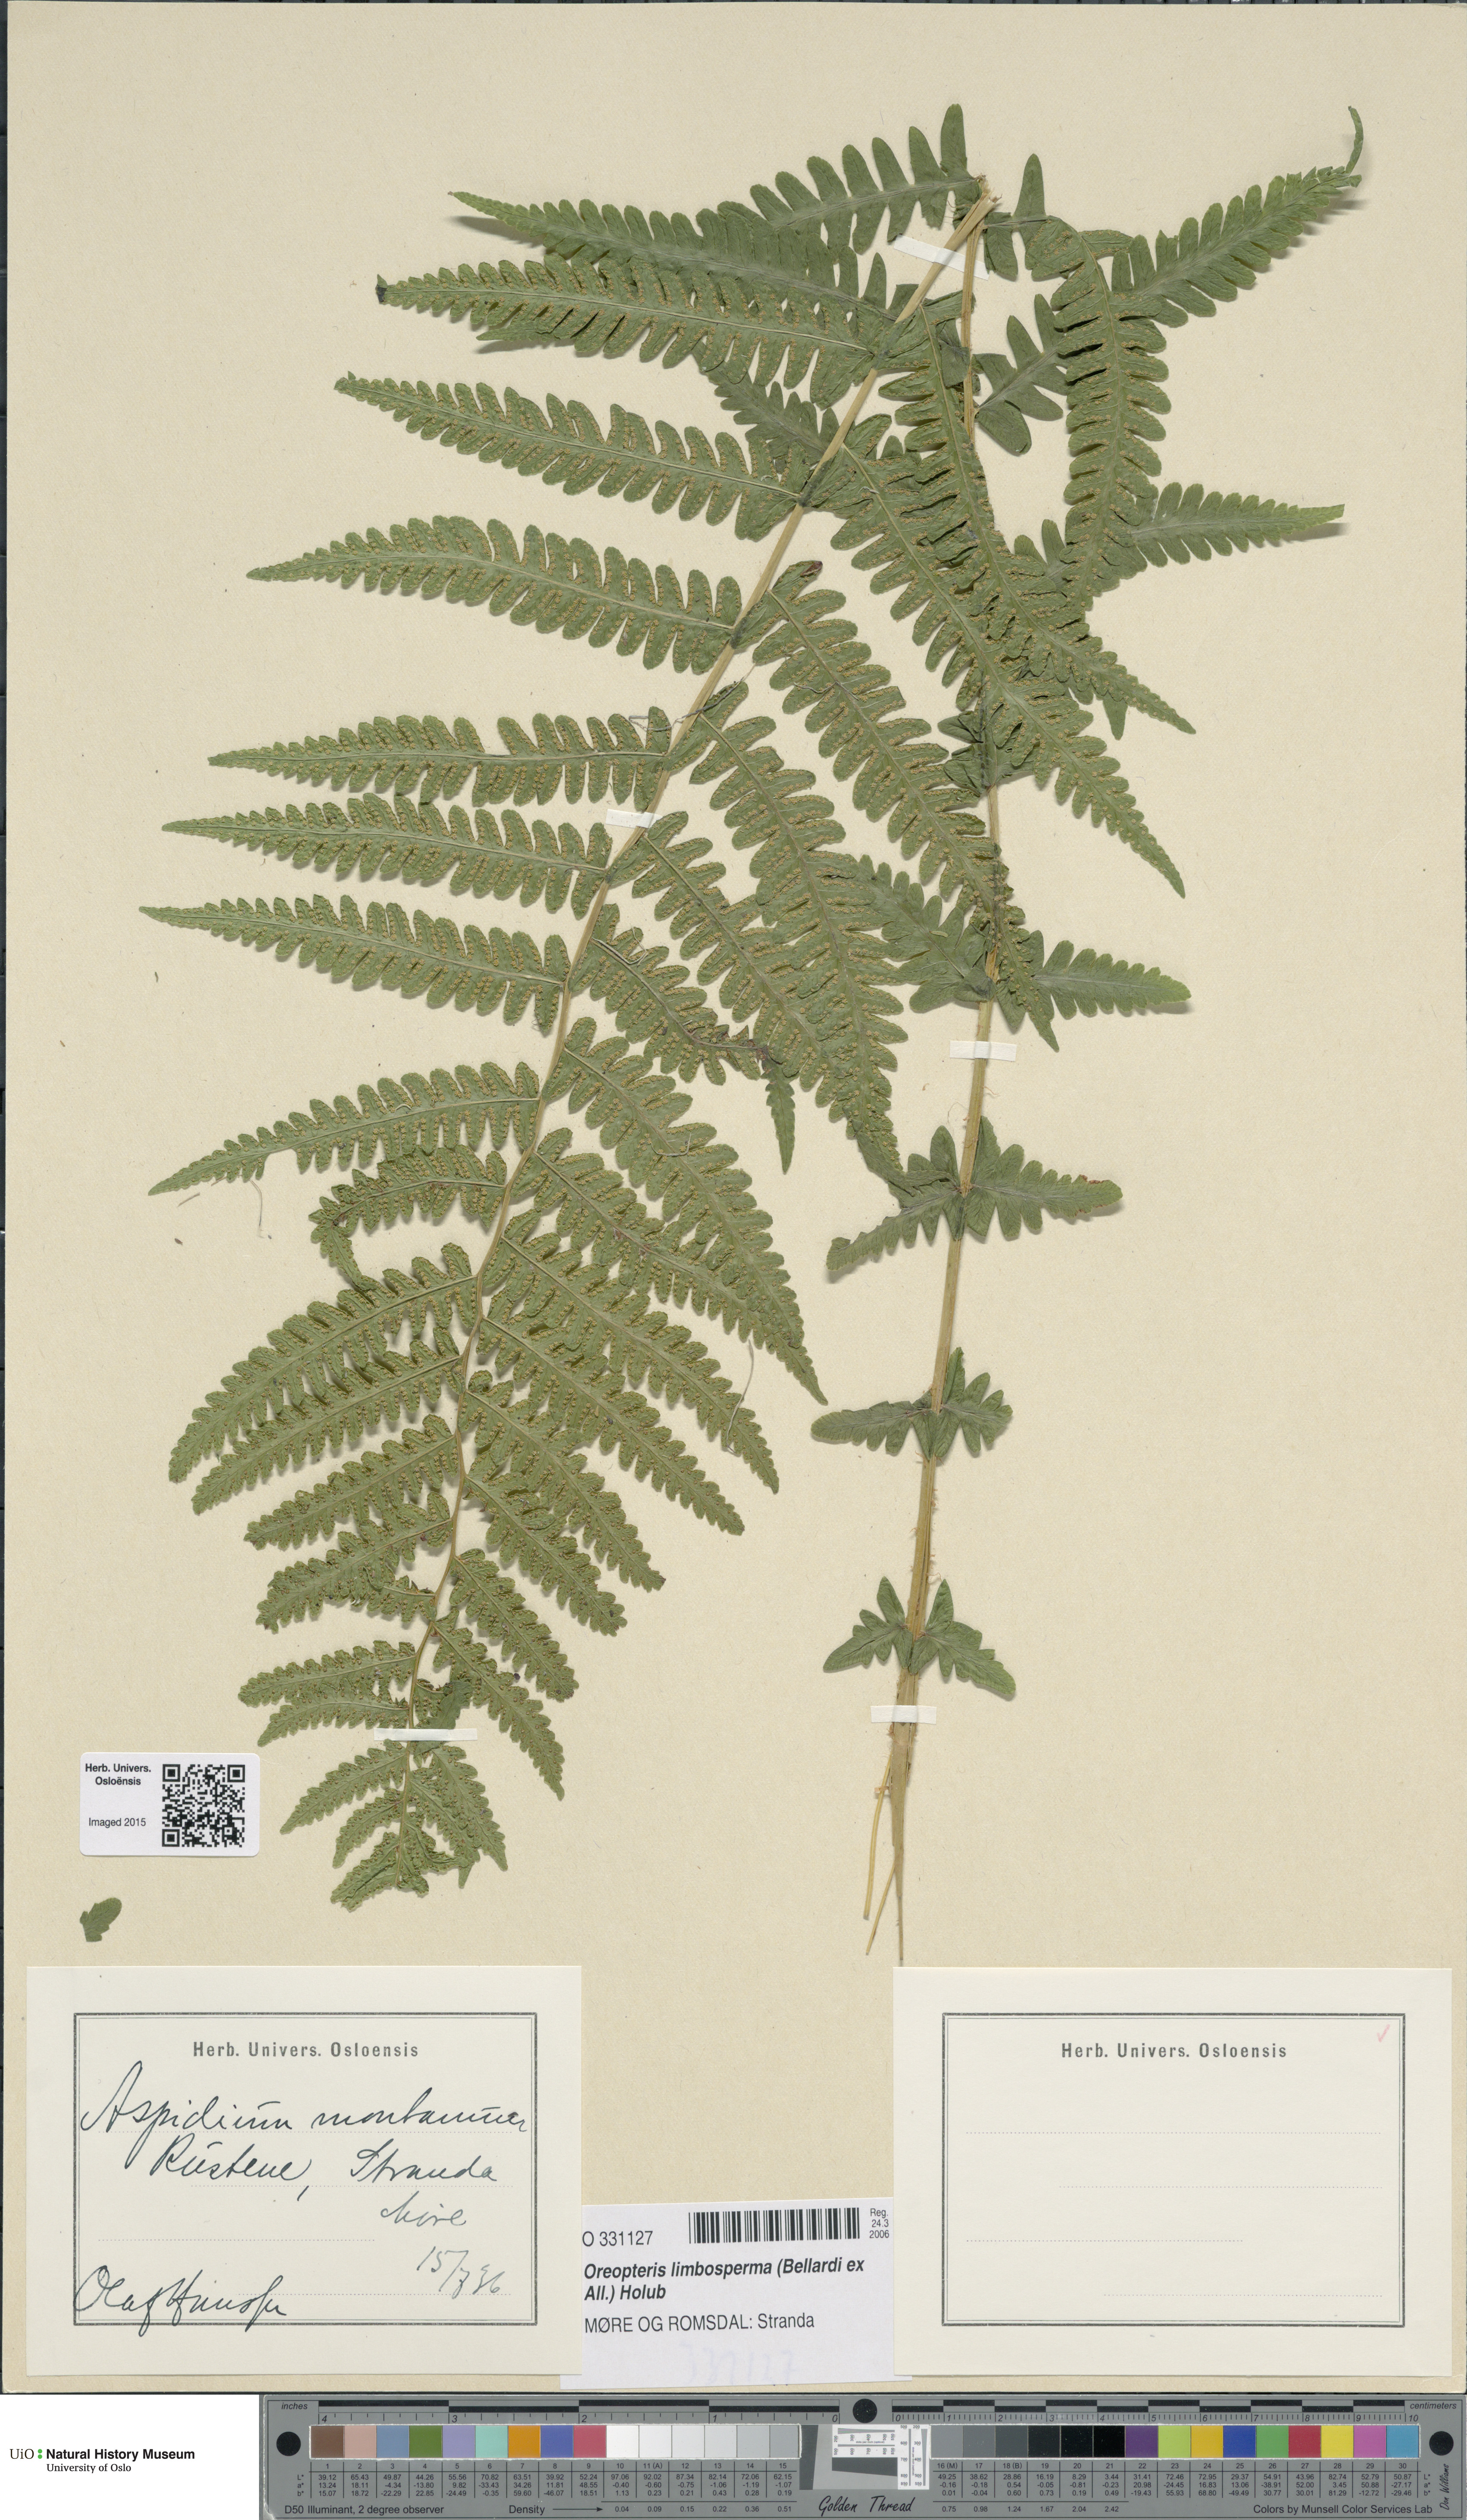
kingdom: Plantae
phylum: Tracheophyta
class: Polypodiopsida
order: Polypodiales
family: Thelypteridaceae
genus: Oreopteris
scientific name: Oreopteris limbosperma
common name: Lemon-scented fern
